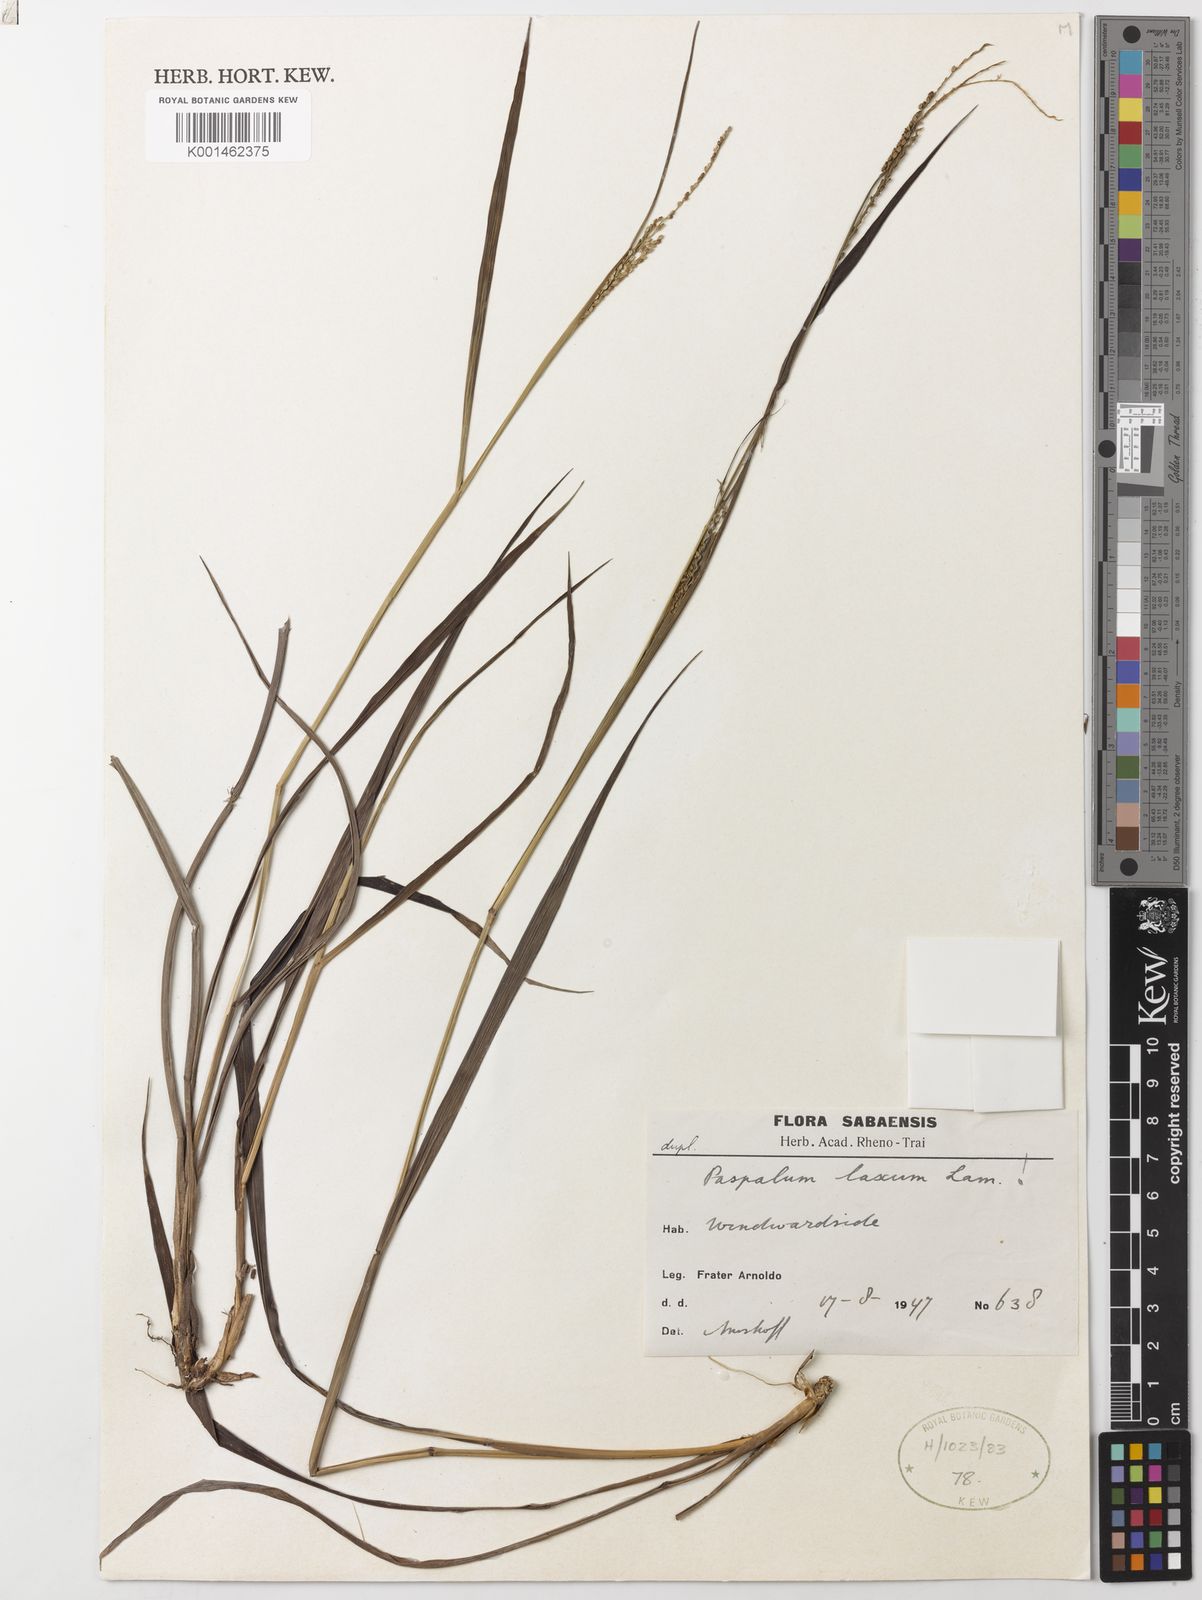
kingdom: Plantae
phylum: Tracheophyta
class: Liliopsida
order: Poales
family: Poaceae
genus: Paspalum
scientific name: Paspalum laxum
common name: Coconut paspalum
